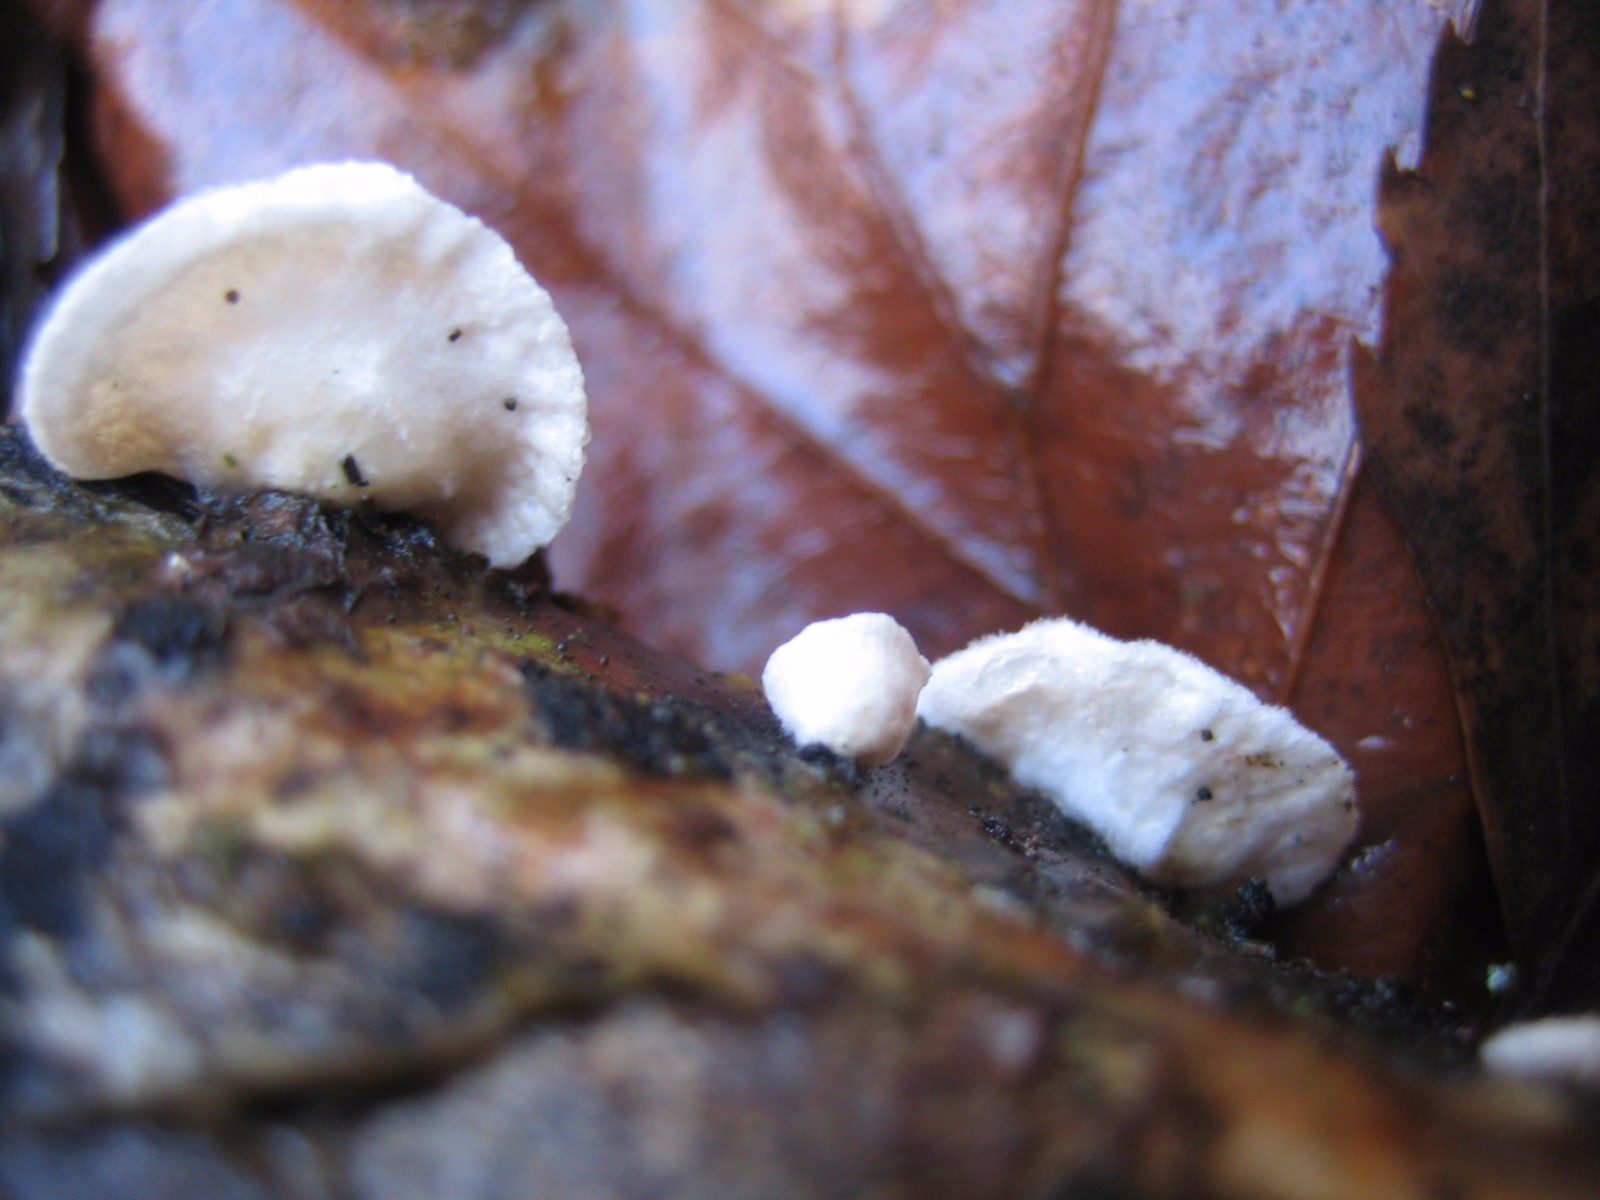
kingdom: Fungi
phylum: Basidiomycota
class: Agaricomycetes
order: Agaricales
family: Crepidotaceae
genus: Crepidotus
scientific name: Crepidotus
